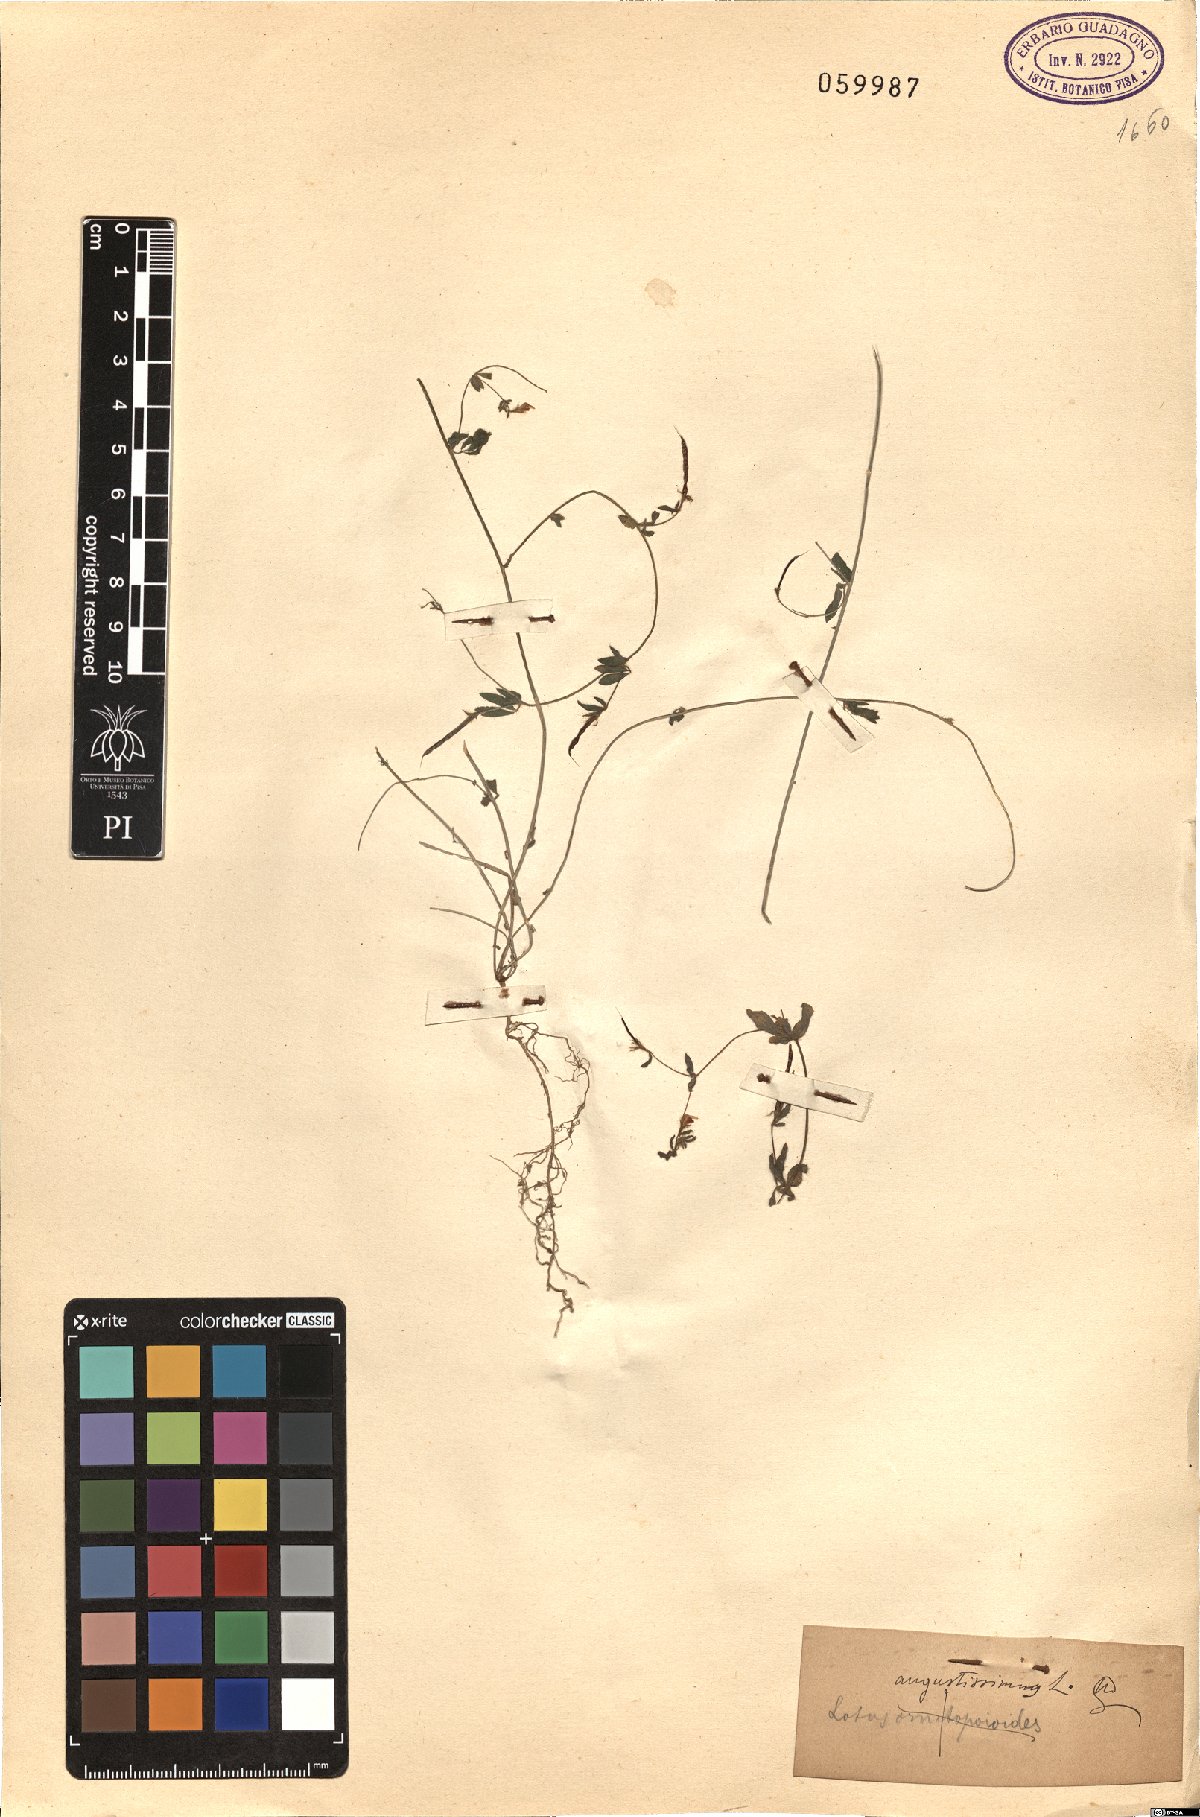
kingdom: Plantae
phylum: Tracheophyta
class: Magnoliopsida
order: Fabales
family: Fabaceae
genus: Lotus
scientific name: Lotus angustissimus
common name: Slender bird's-foot trefoil
